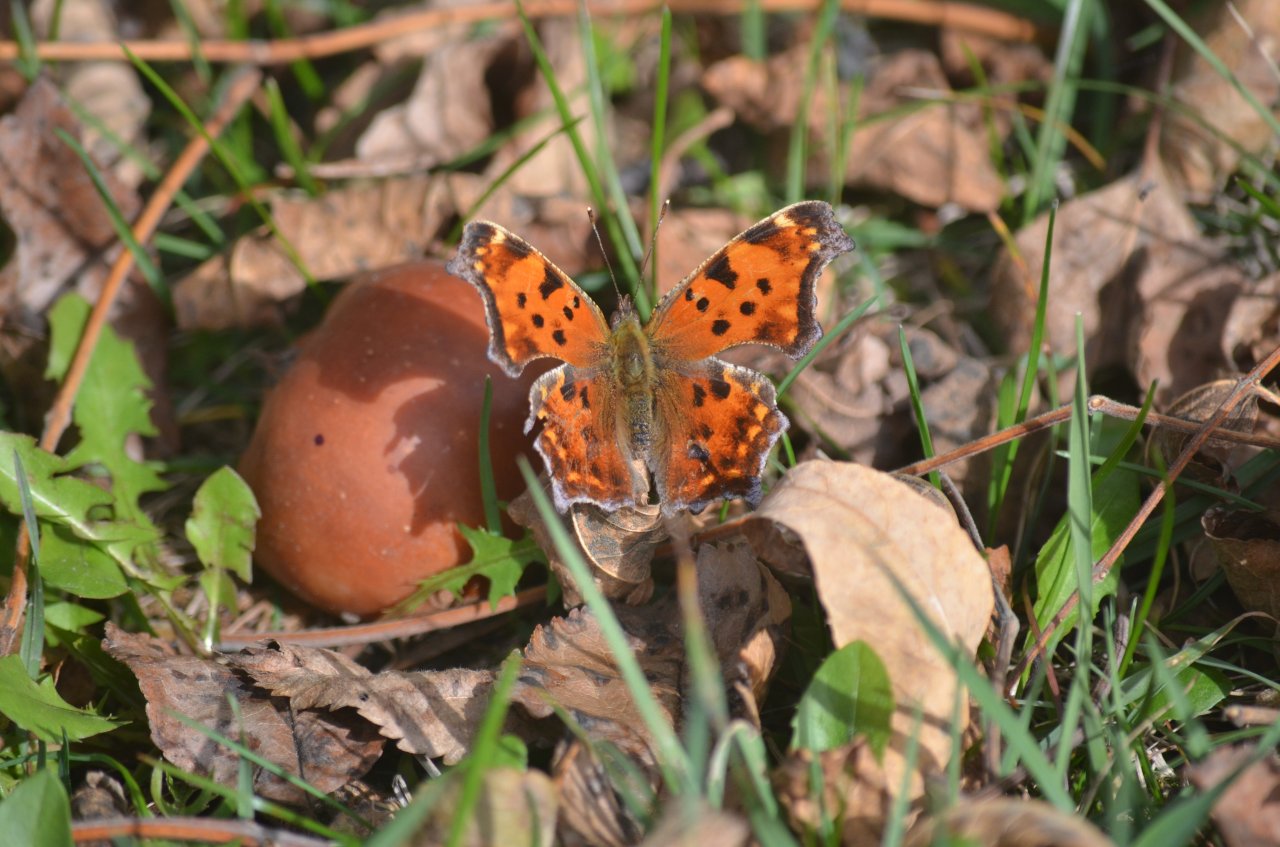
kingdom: Animalia
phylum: Arthropoda
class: Insecta
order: Lepidoptera
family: Nymphalidae
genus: Polygonia
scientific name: Polygonia comma
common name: Eastern Comma
